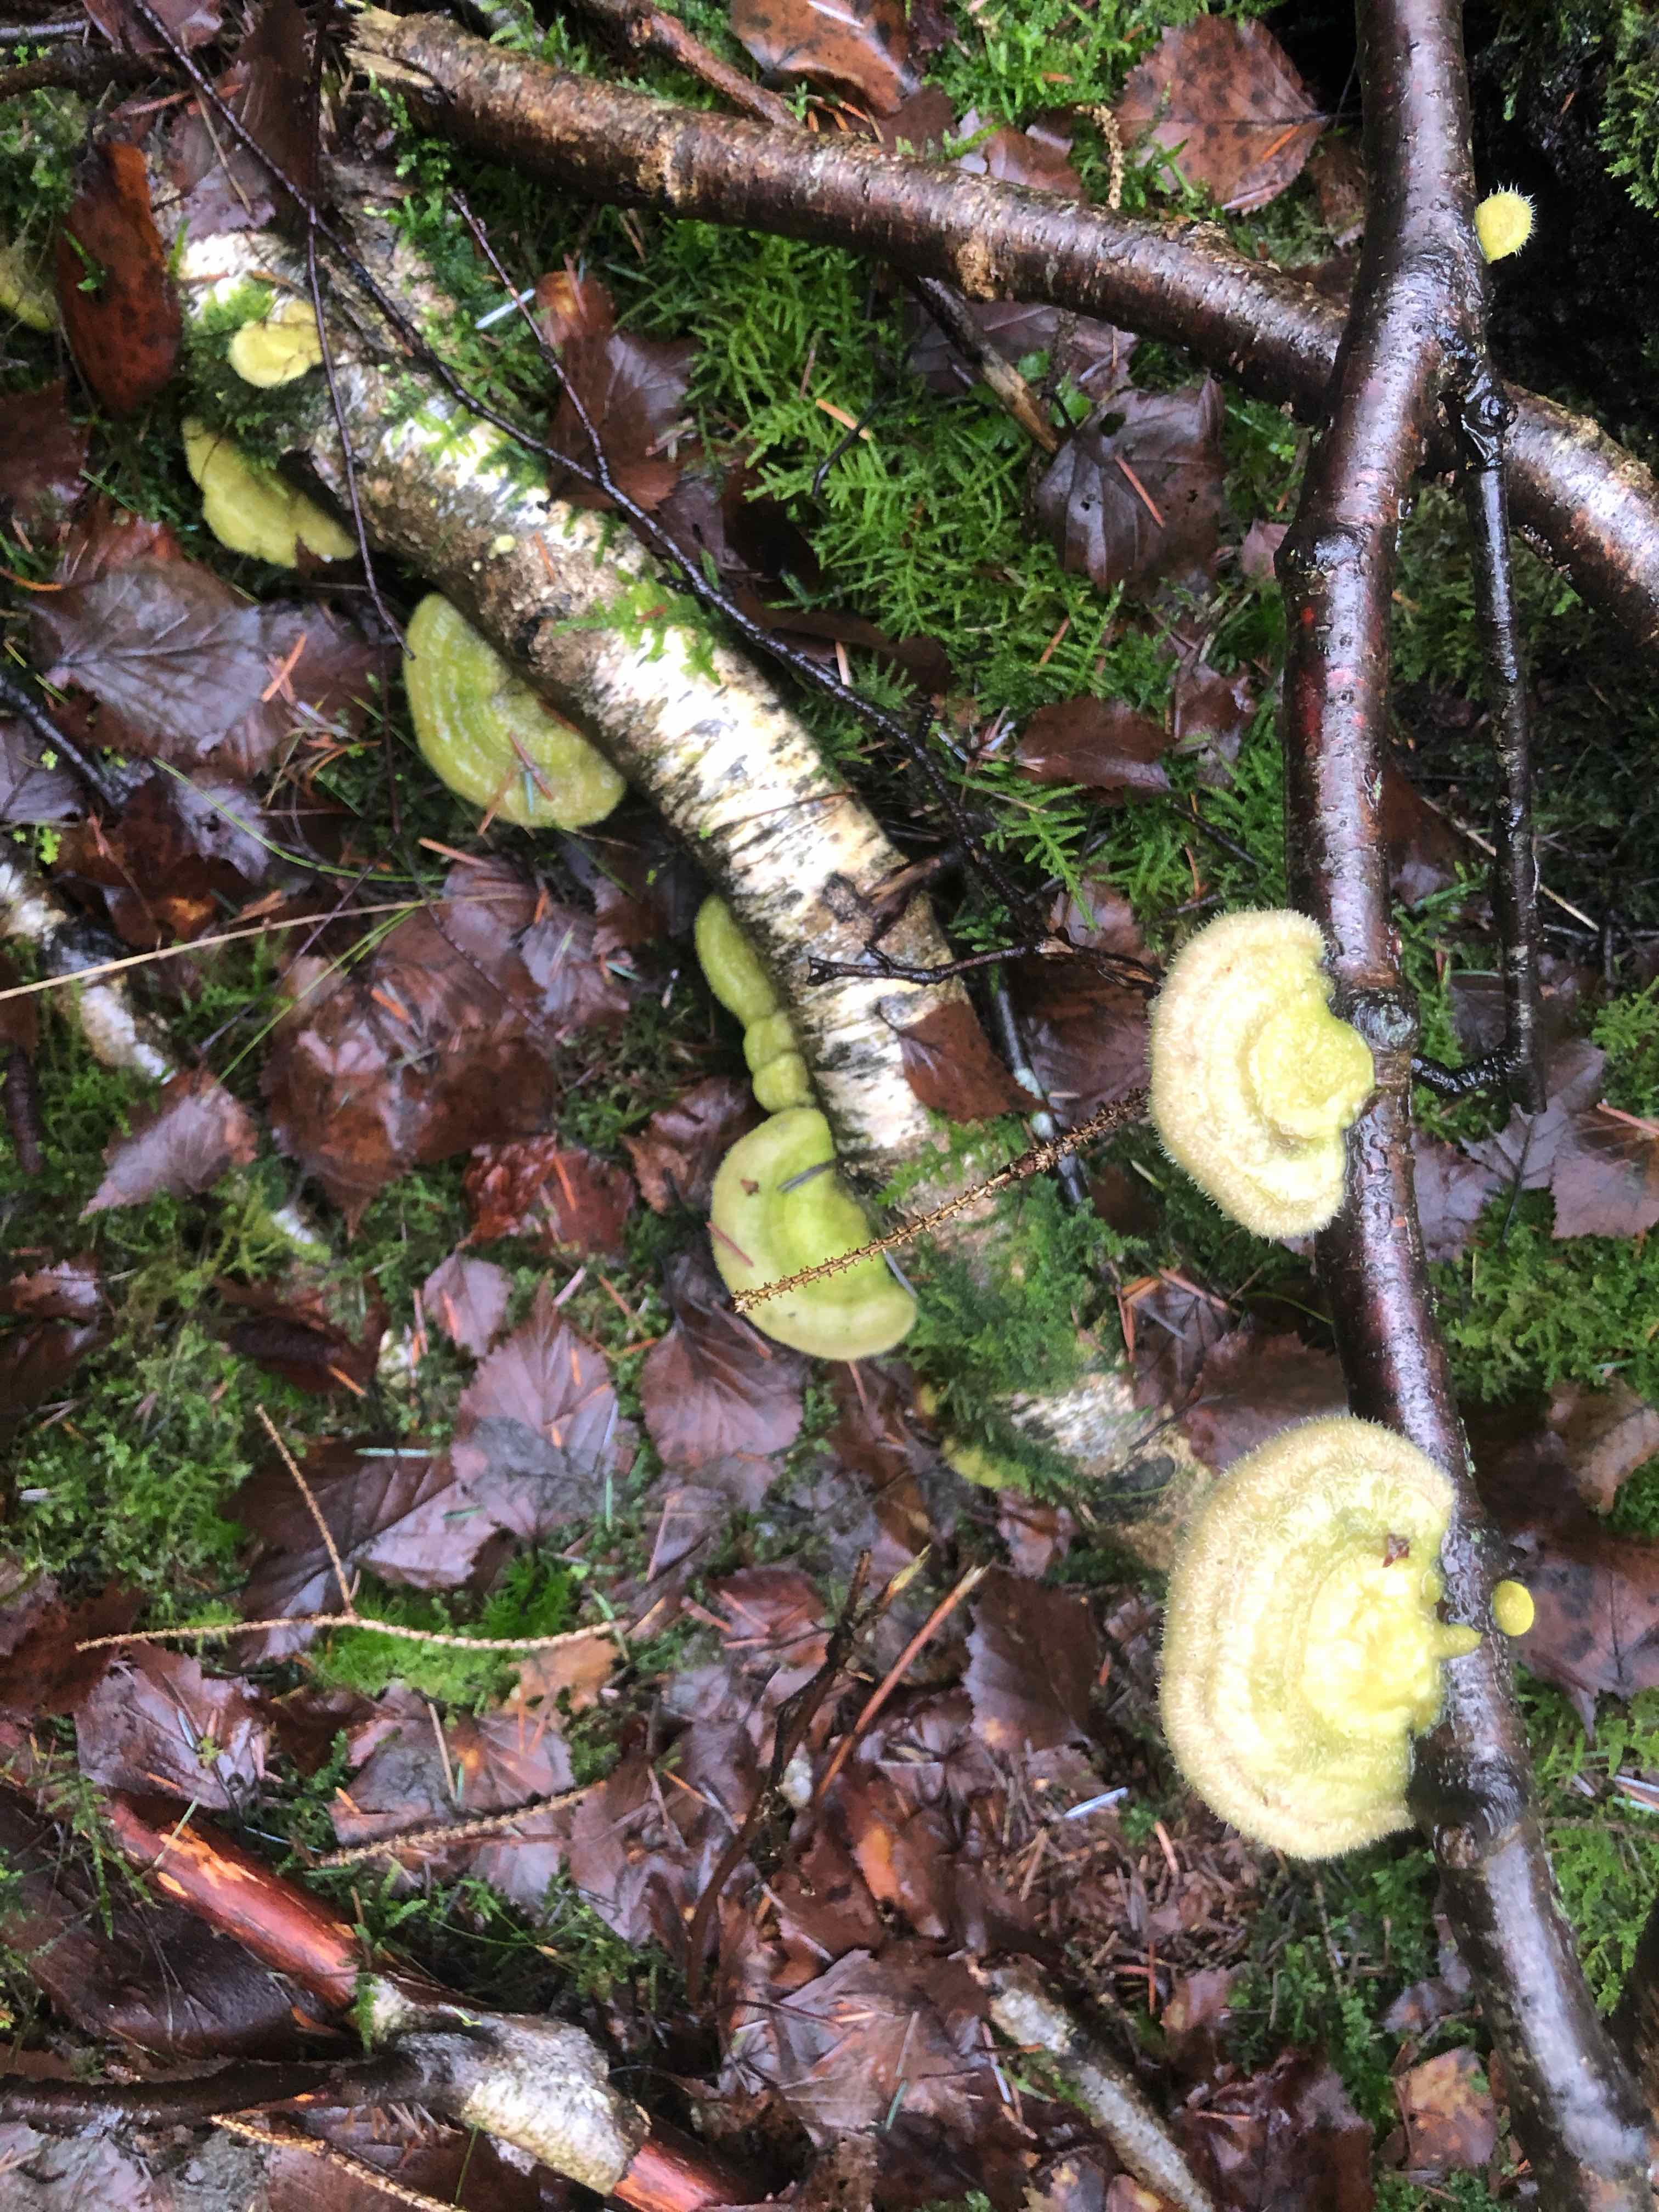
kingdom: Fungi
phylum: Basidiomycota
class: Agaricomycetes
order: Polyporales
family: Polyporaceae
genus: Trametes
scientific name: Trametes hirsuta
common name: håret læderporesvamp
